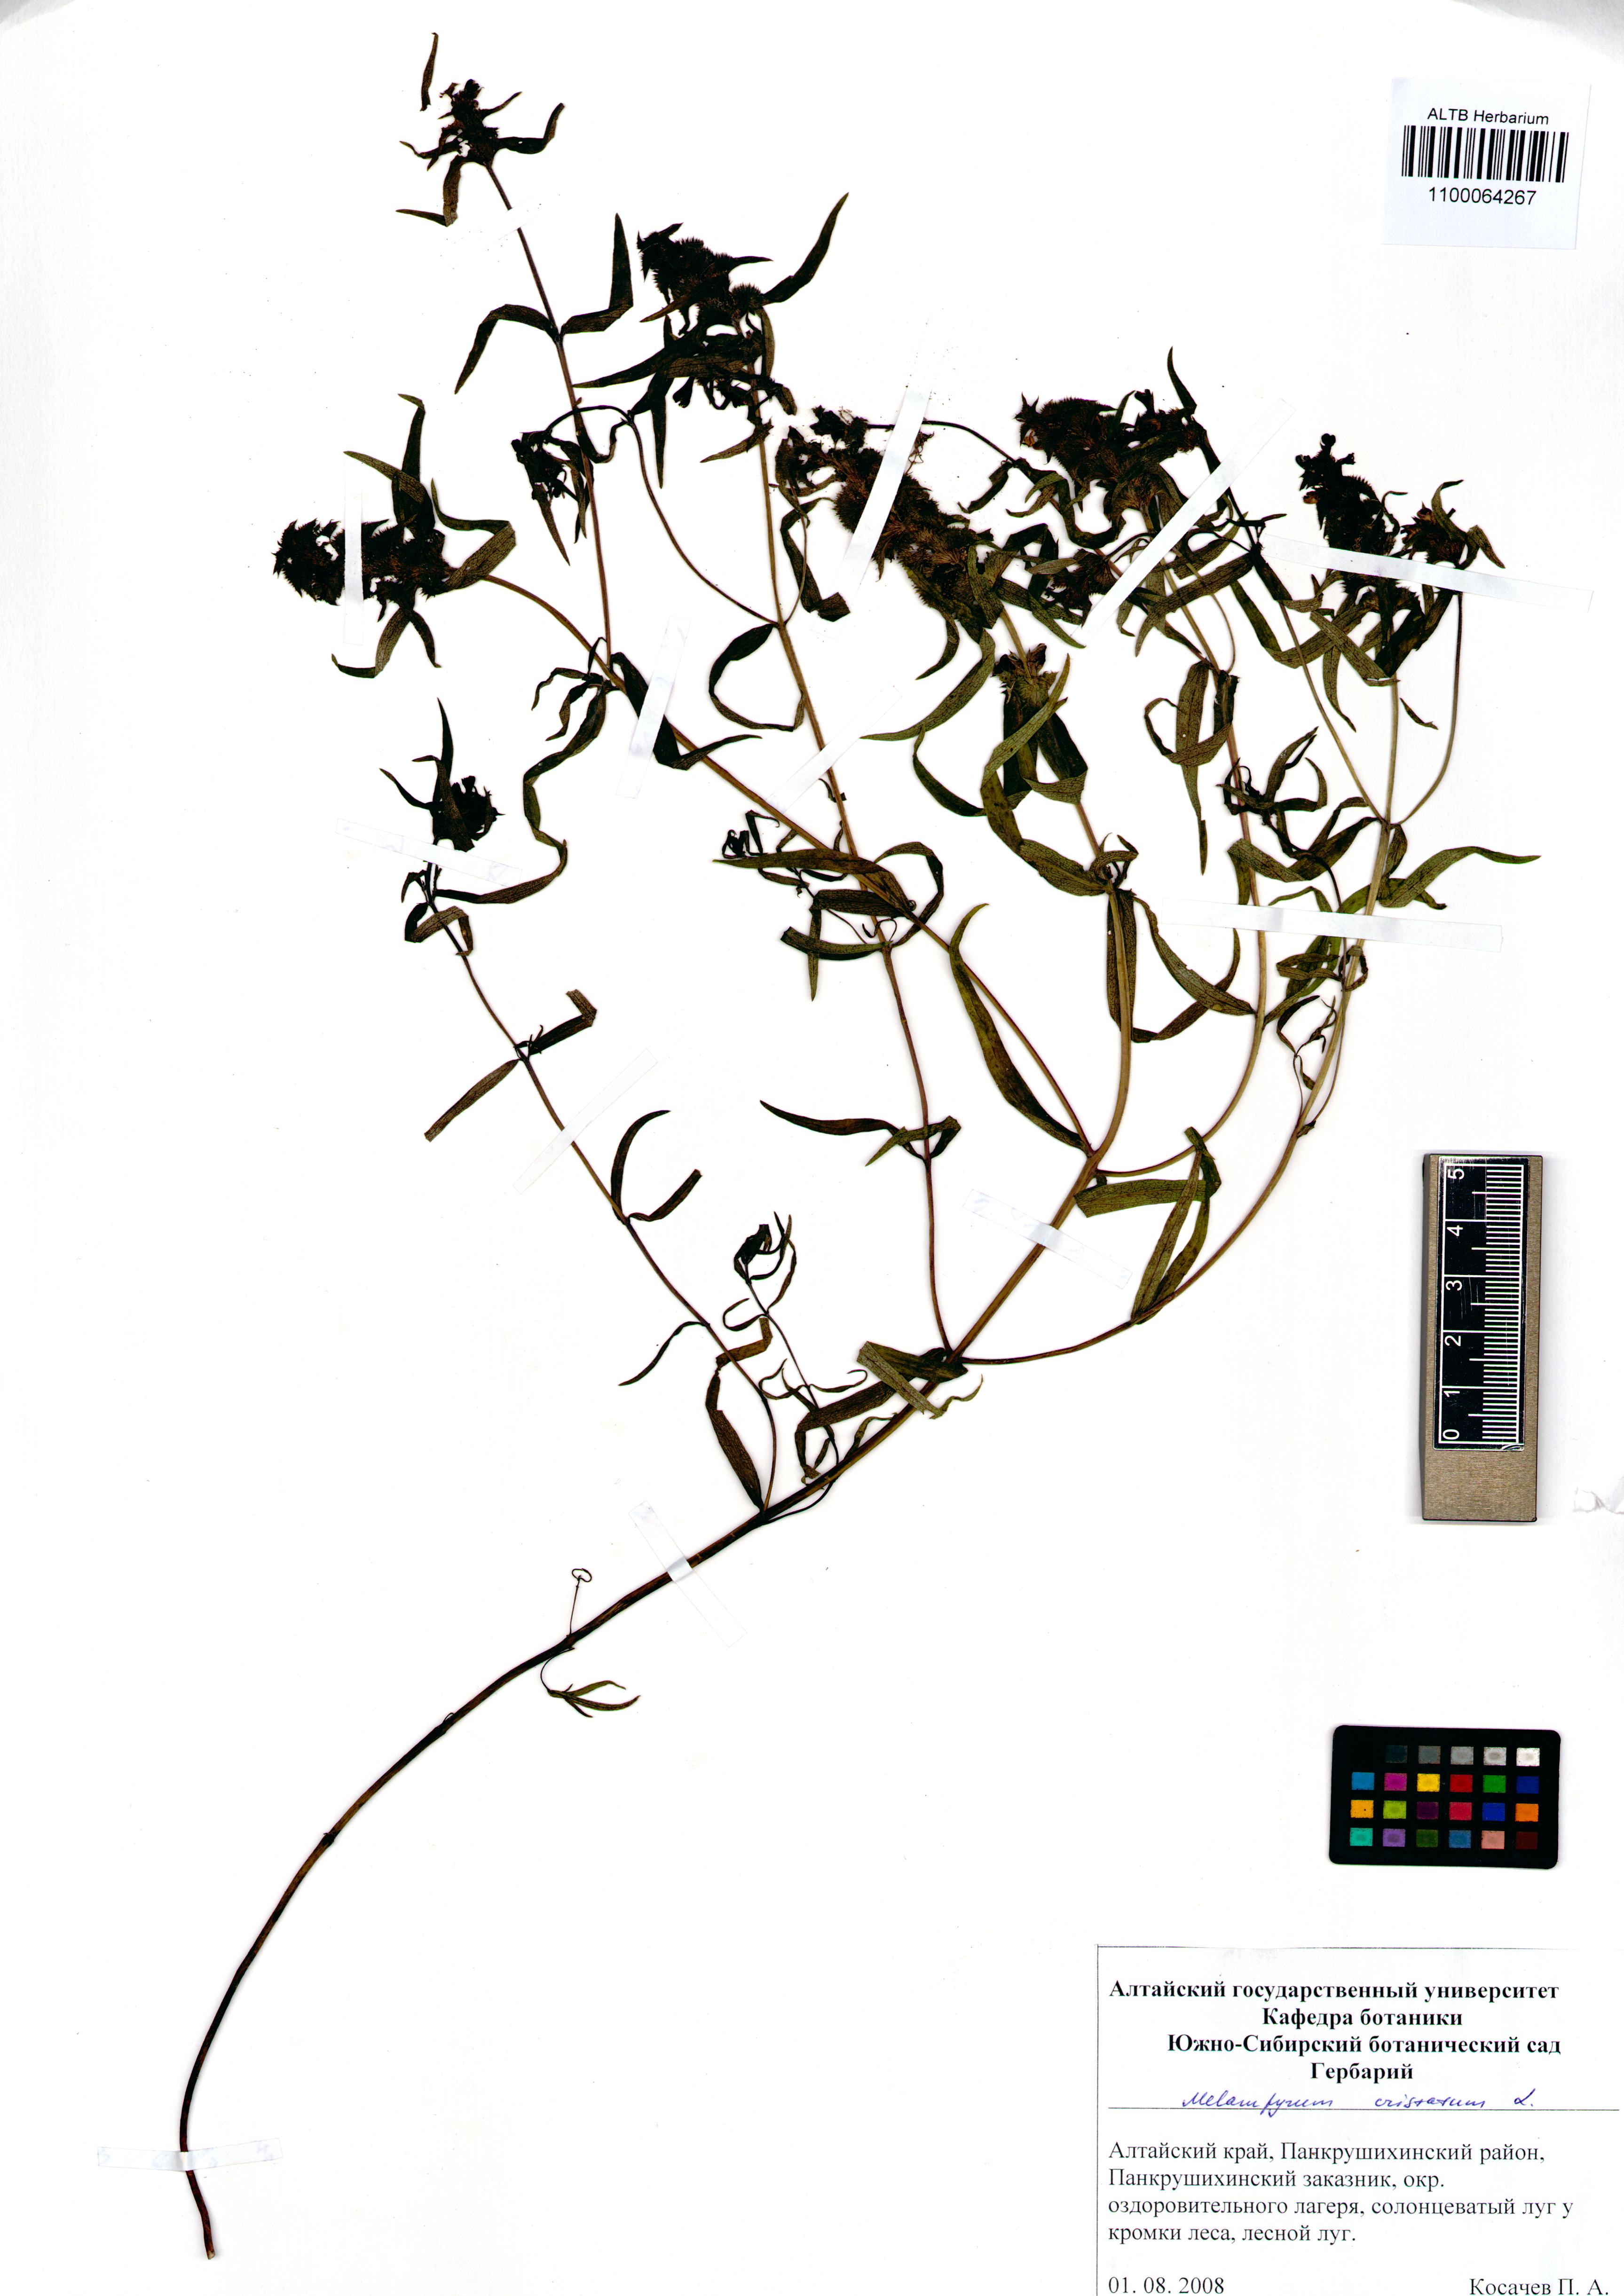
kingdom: Plantae
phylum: Tracheophyta
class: Magnoliopsida
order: Lamiales
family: Orobanchaceae
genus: Melampyrum
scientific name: Melampyrum cristatum
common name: Crested cow-wheat
